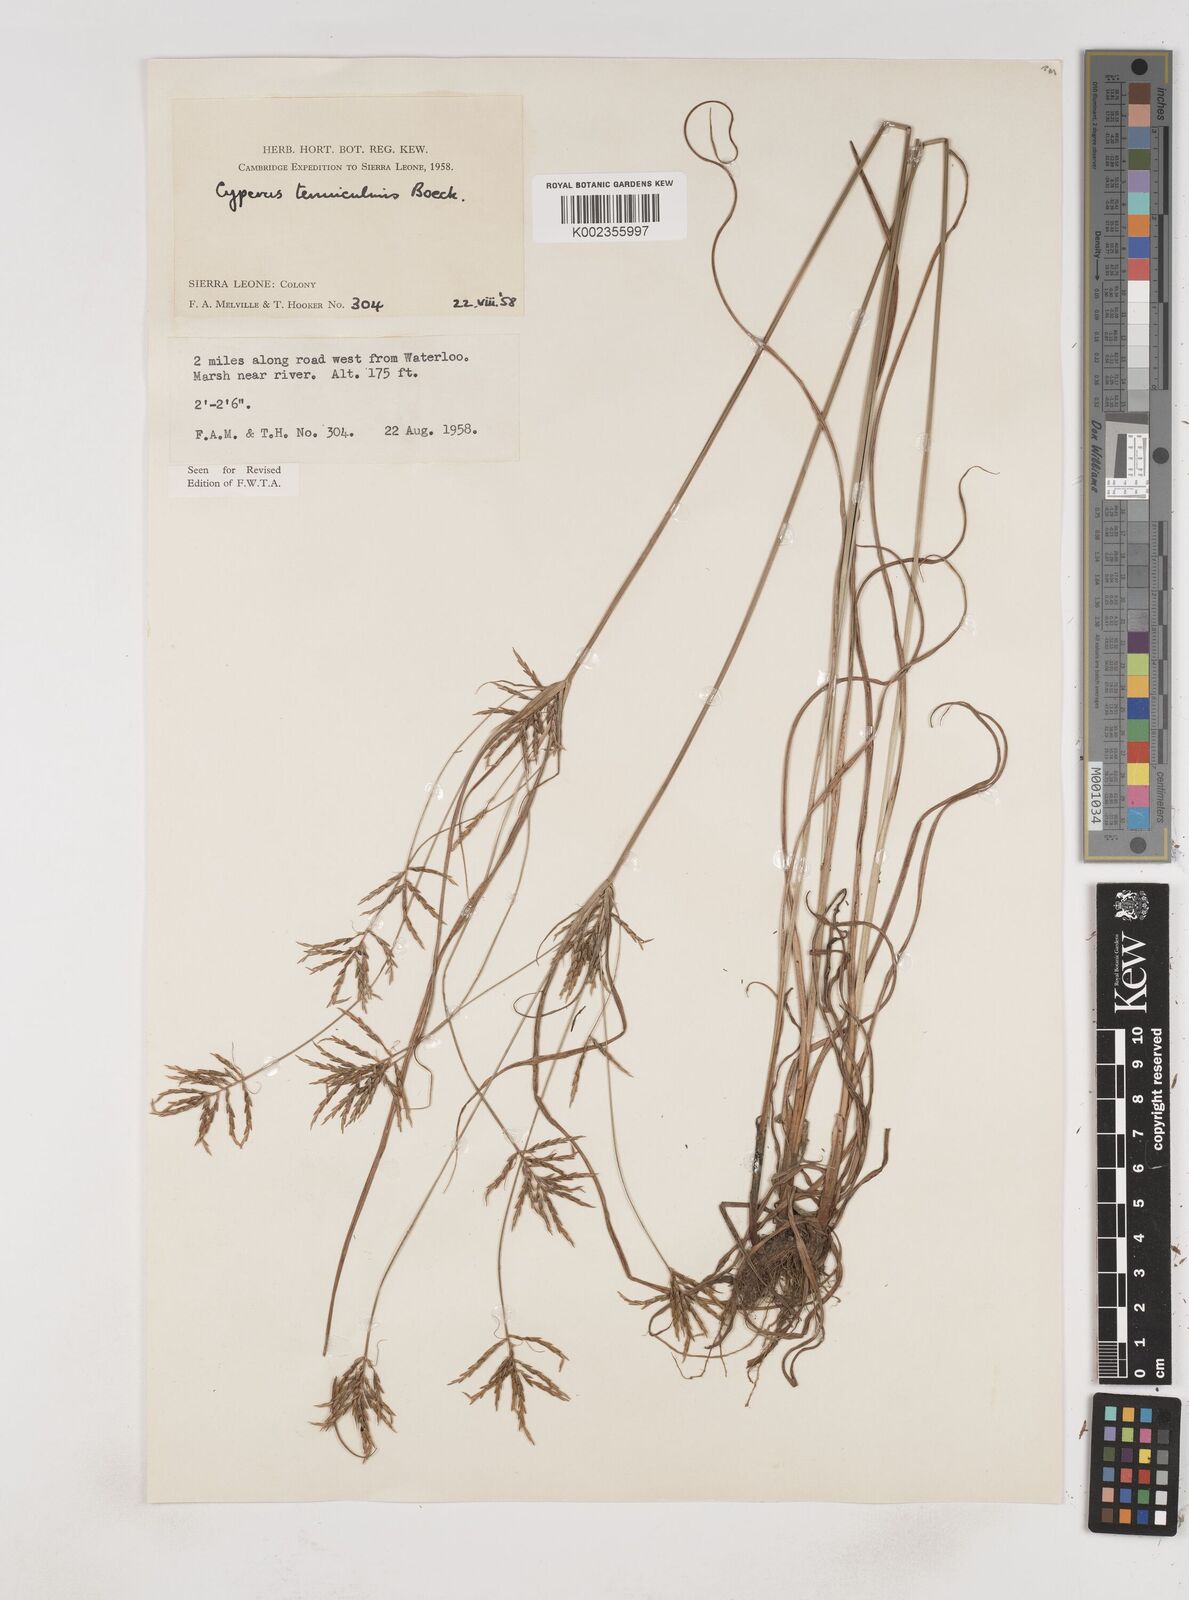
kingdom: Plantae
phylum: Tracheophyta
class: Liliopsida
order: Poales
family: Cyperaceae
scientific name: Cyperaceae
